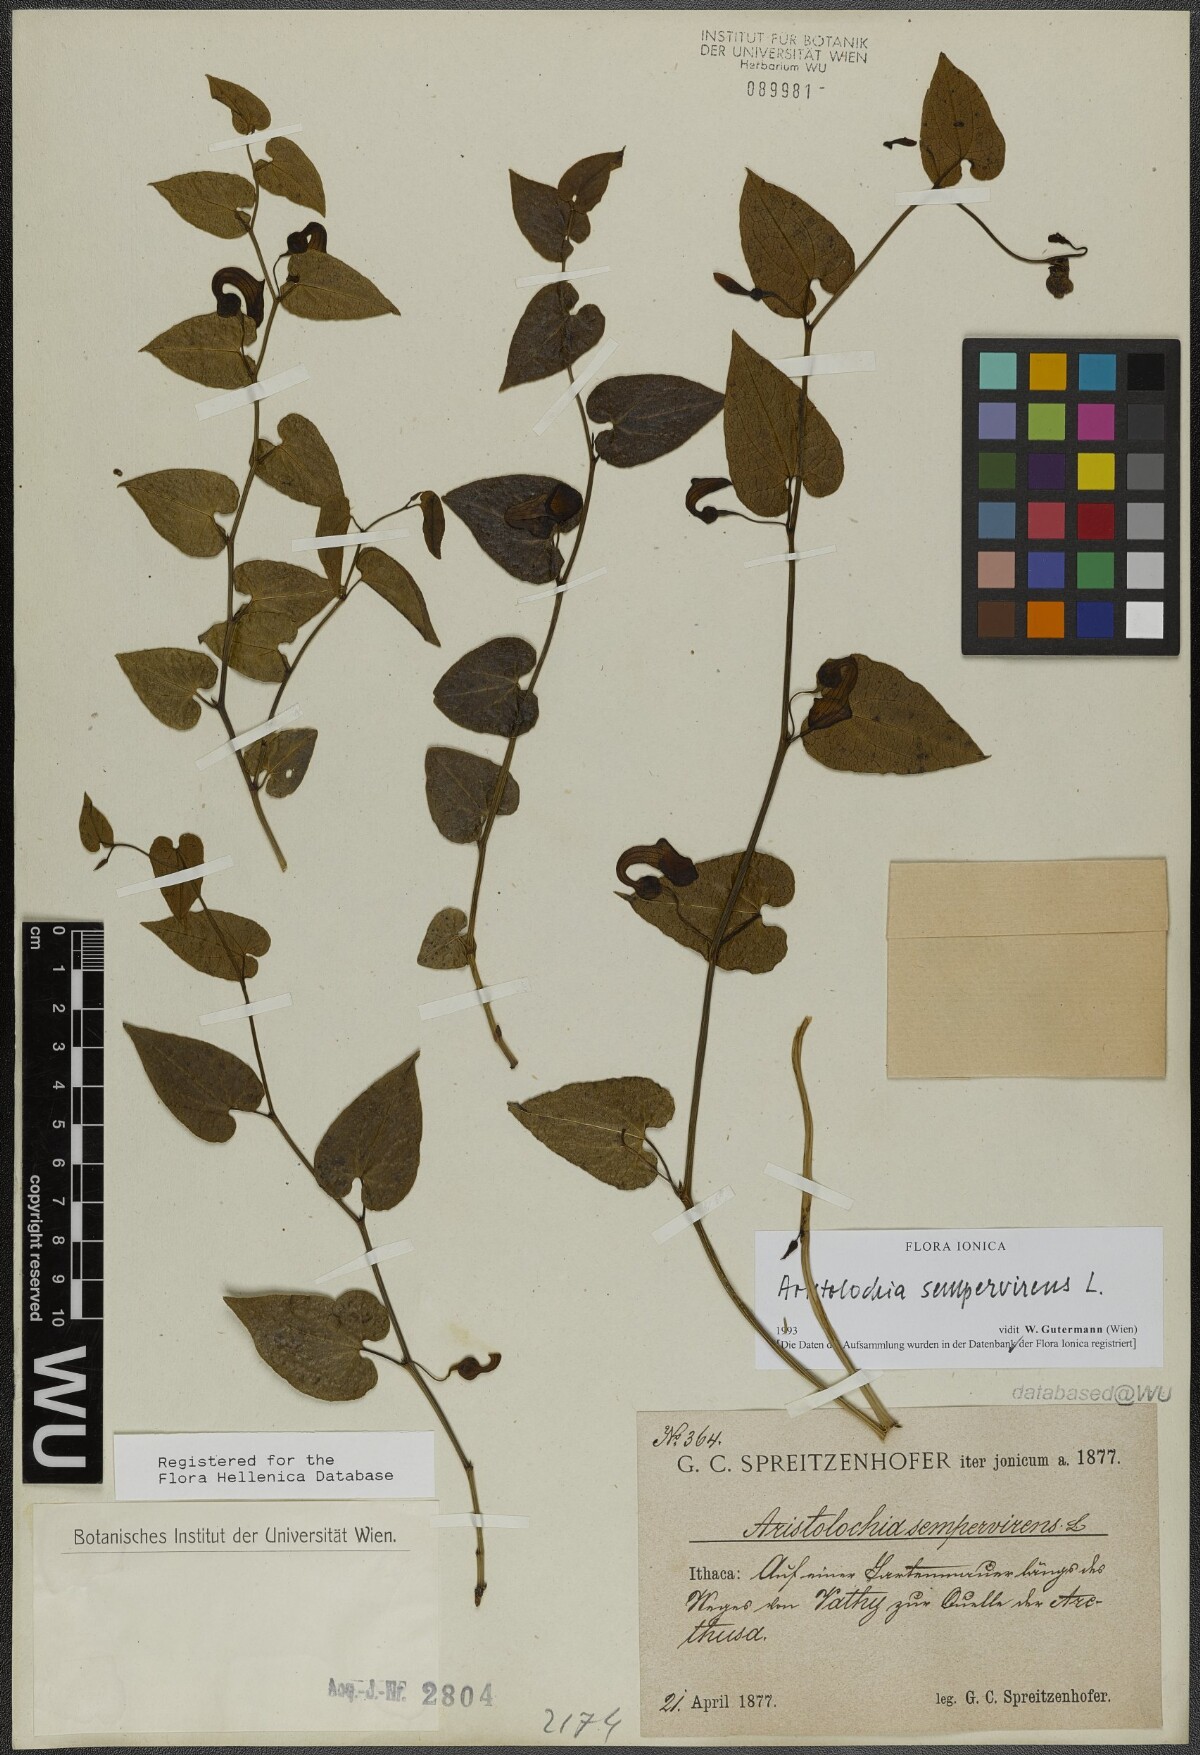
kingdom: Plantae
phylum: Tracheophyta
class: Magnoliopsida
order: Piperales
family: Aristolochiaceae
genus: Aristolochia
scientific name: Aristolochia sempervirens
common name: Long birthwort
